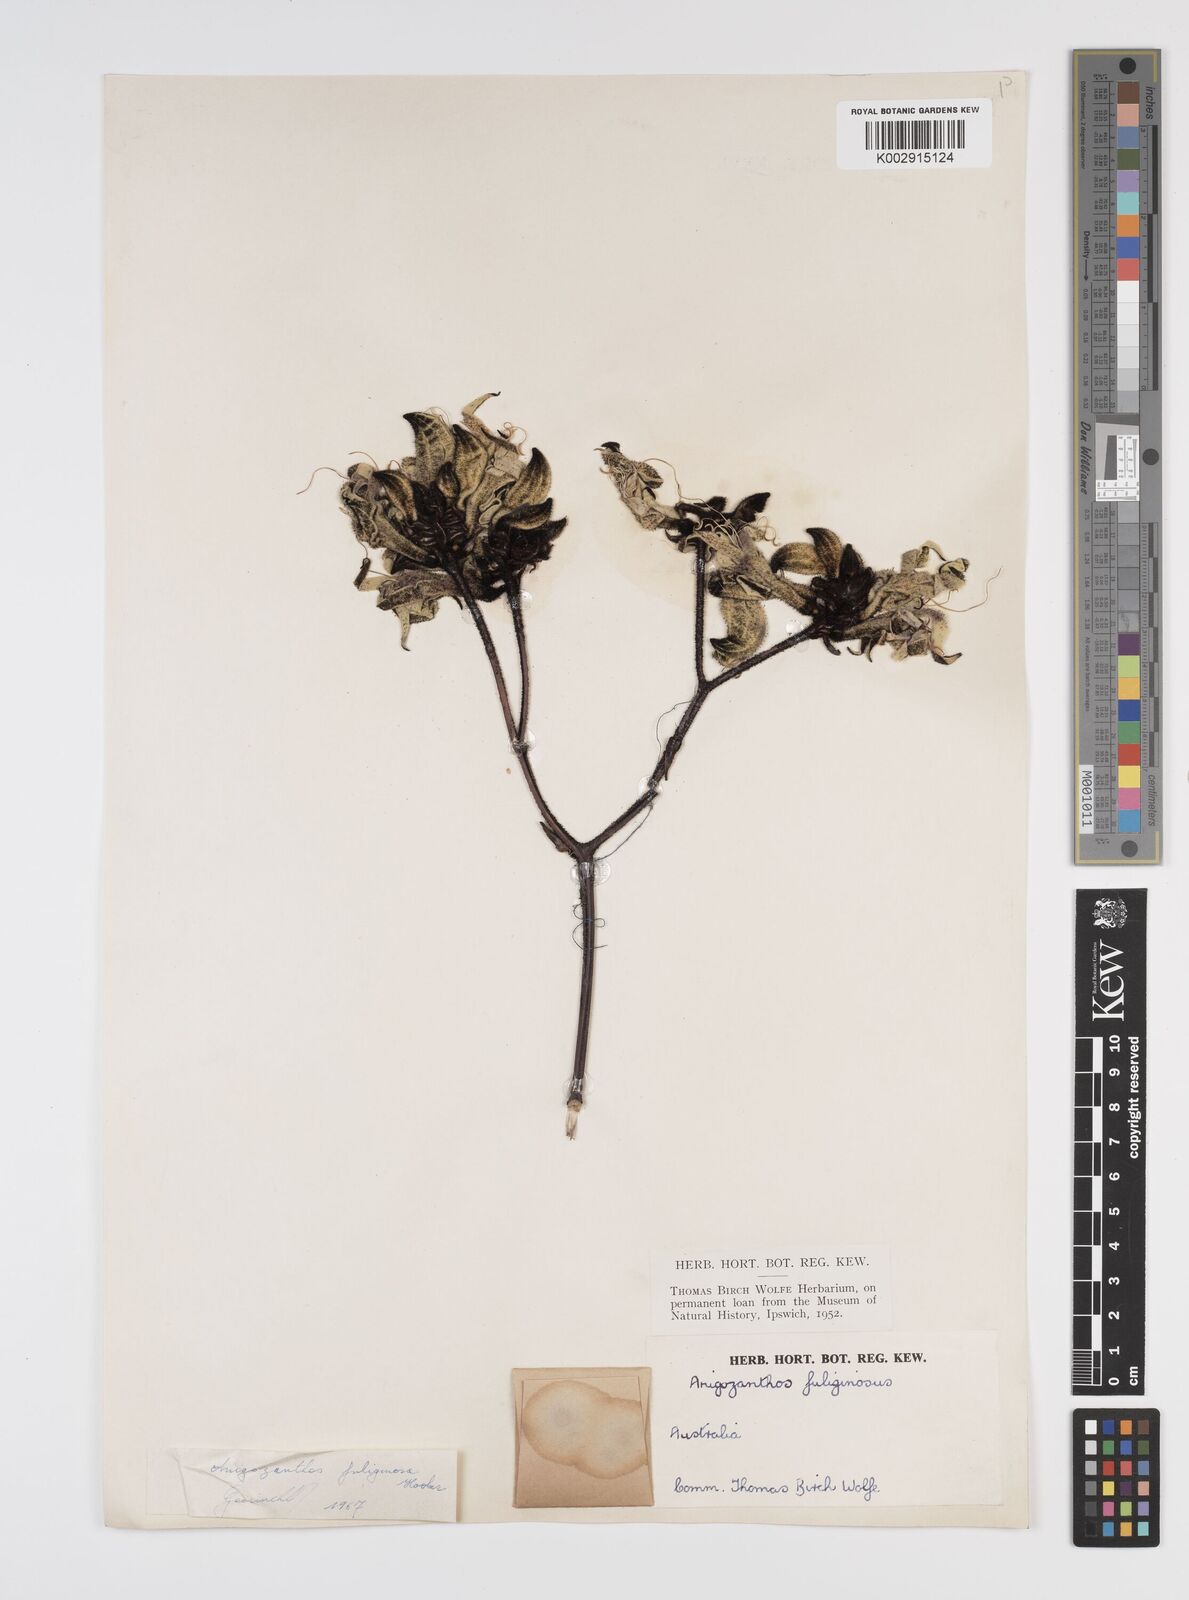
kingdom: Plantae
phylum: Tracheophyta
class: Liliopsida
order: Commelinales
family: Haemodoraceae
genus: Macropidia
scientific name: Macropidia fuliginosa
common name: Black kangaroo-paw
